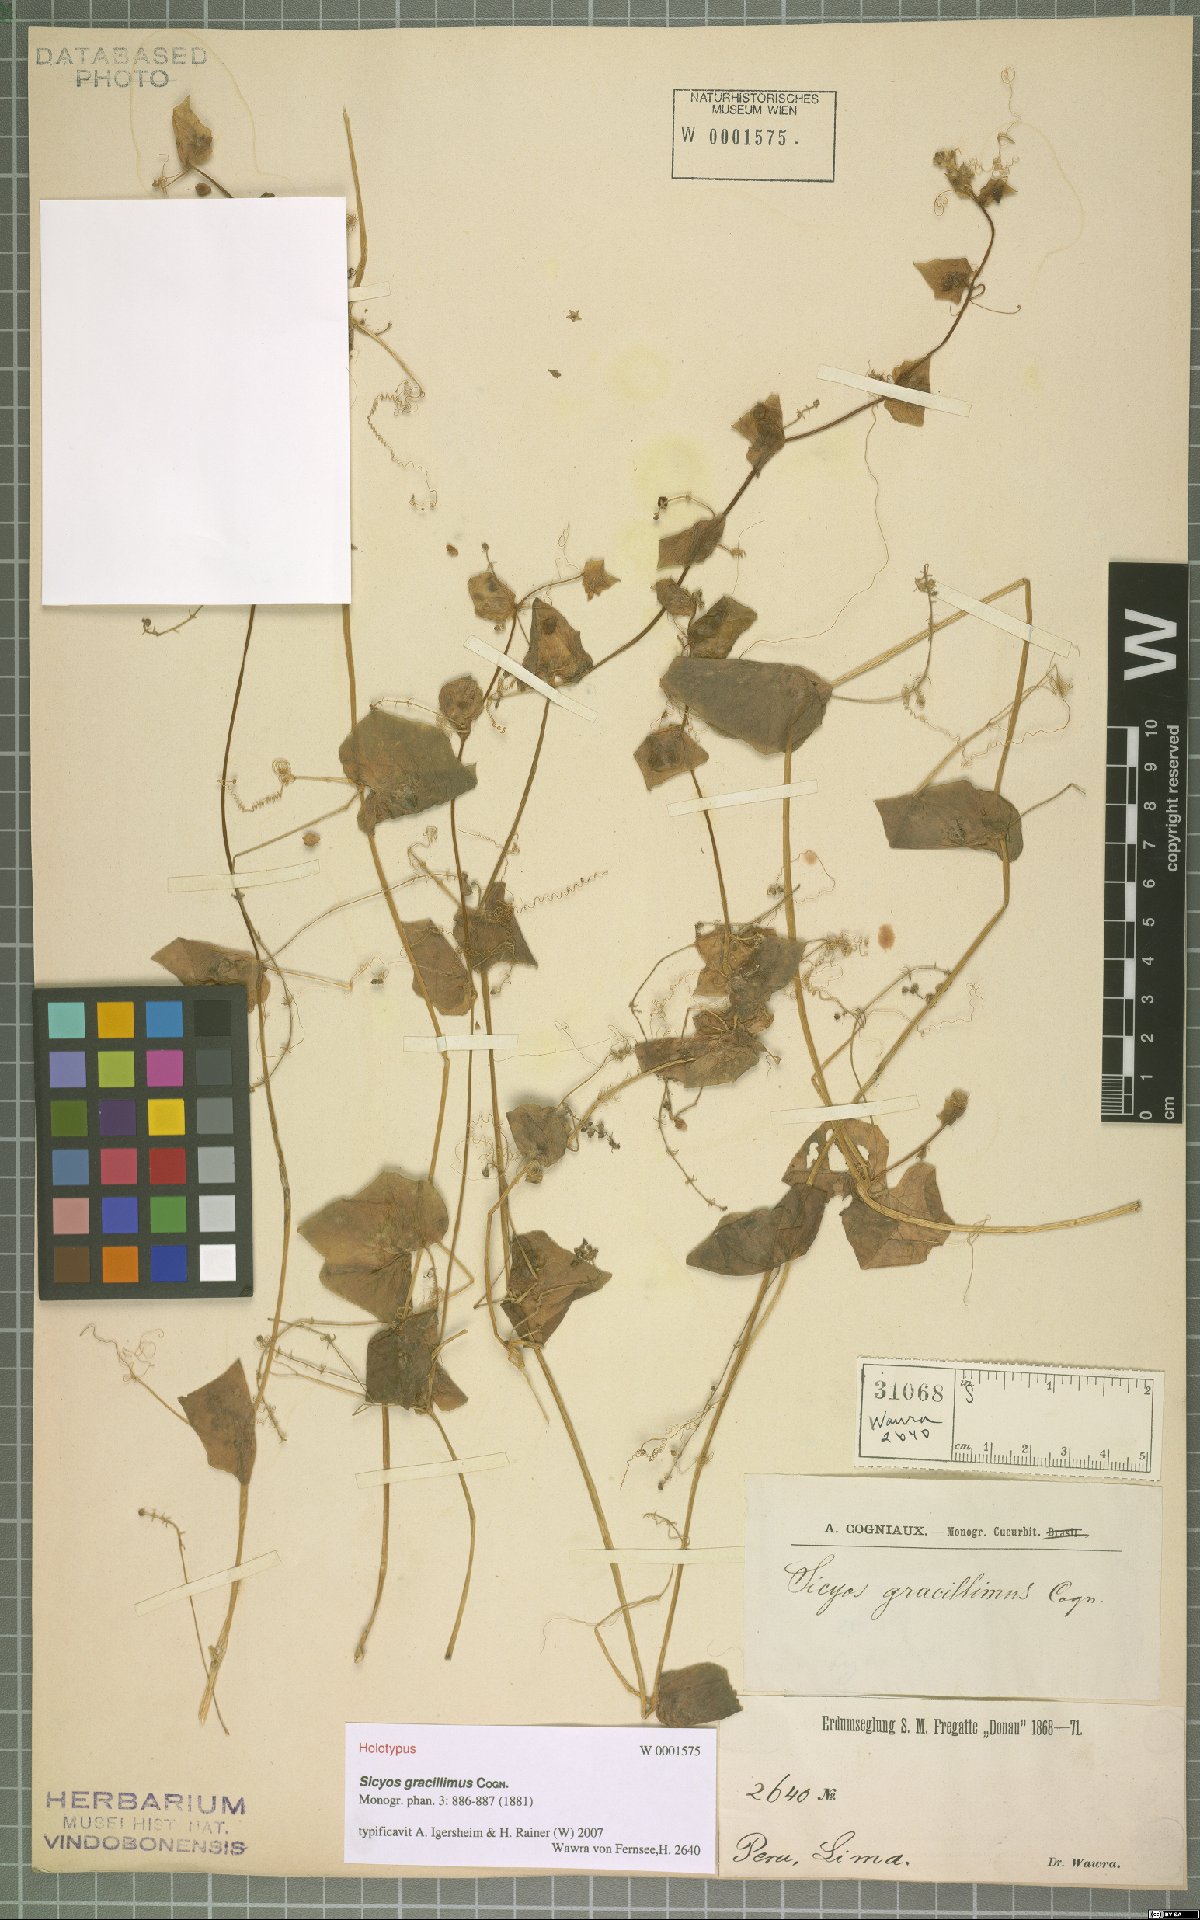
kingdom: Plantae
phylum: Tracheophyta
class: Magnoliopsida
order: Cucurbitales
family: Cucurbitaceae
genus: Sicyos
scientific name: Sicyos gracillimus
